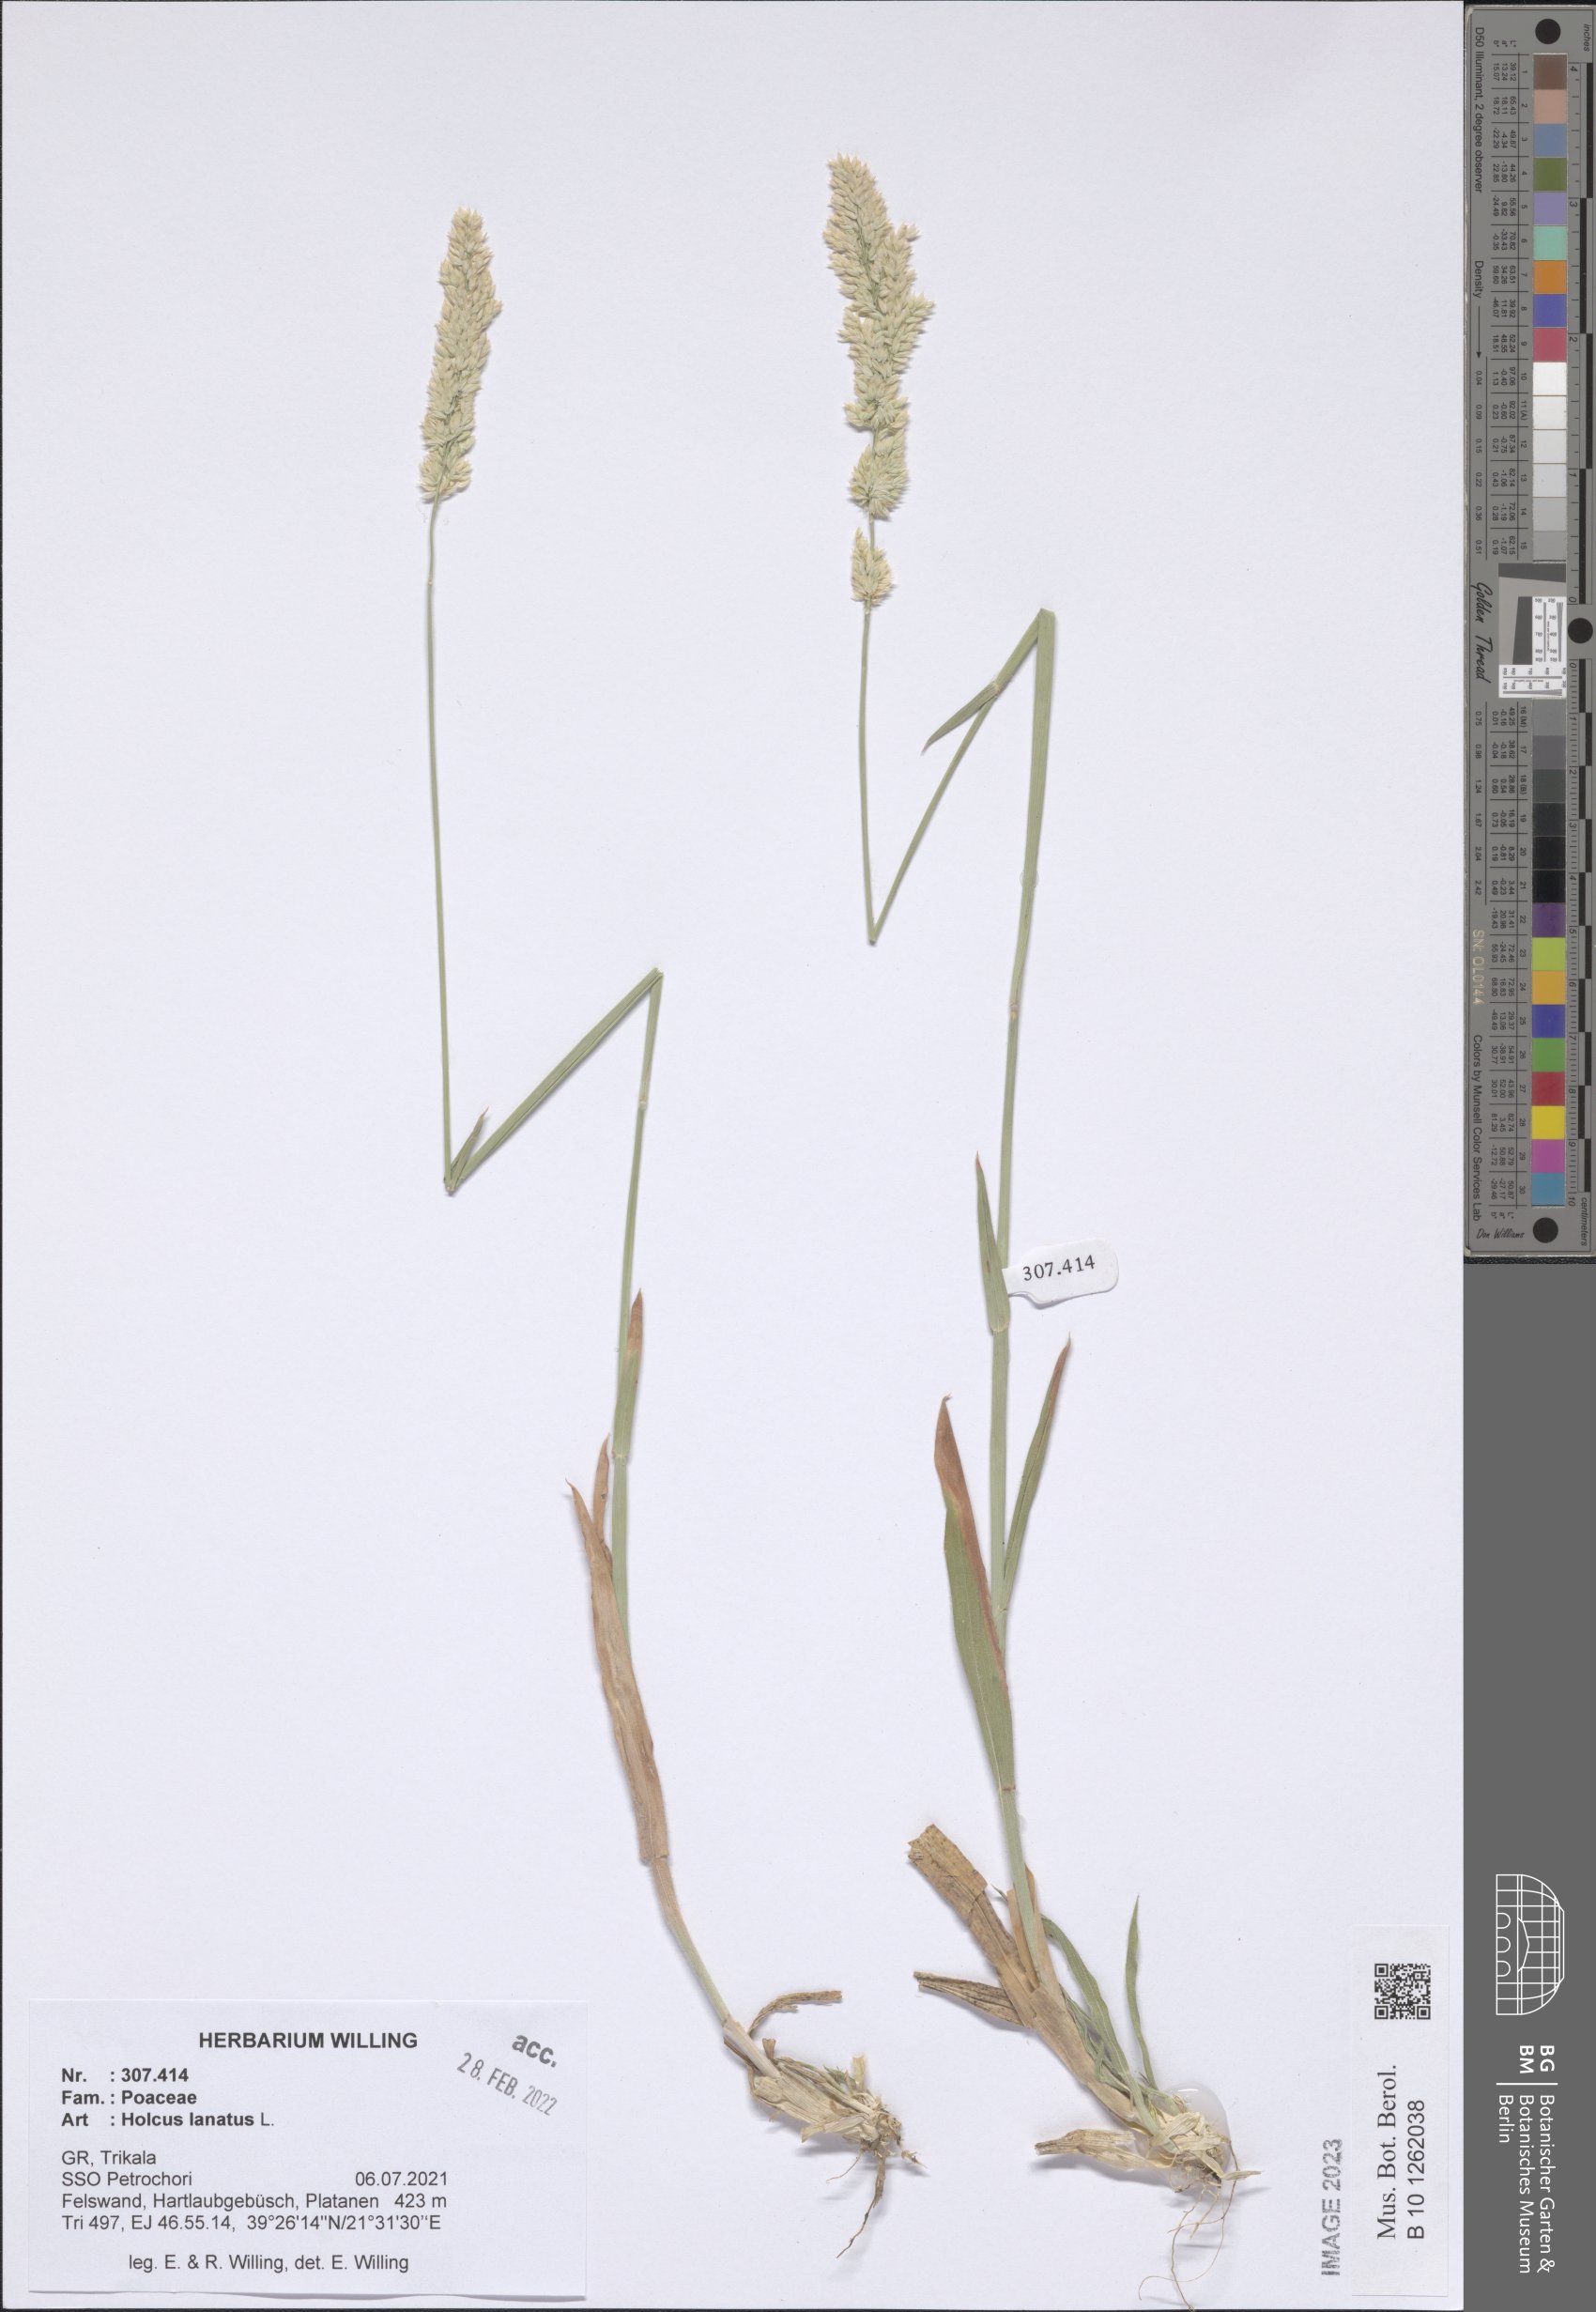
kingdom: Plantae
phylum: Tracheophyta
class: Liliopsida
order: Poales
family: Poaceae
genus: Holcus
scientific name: Holcus lanatus
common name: Yorkshire-fog
